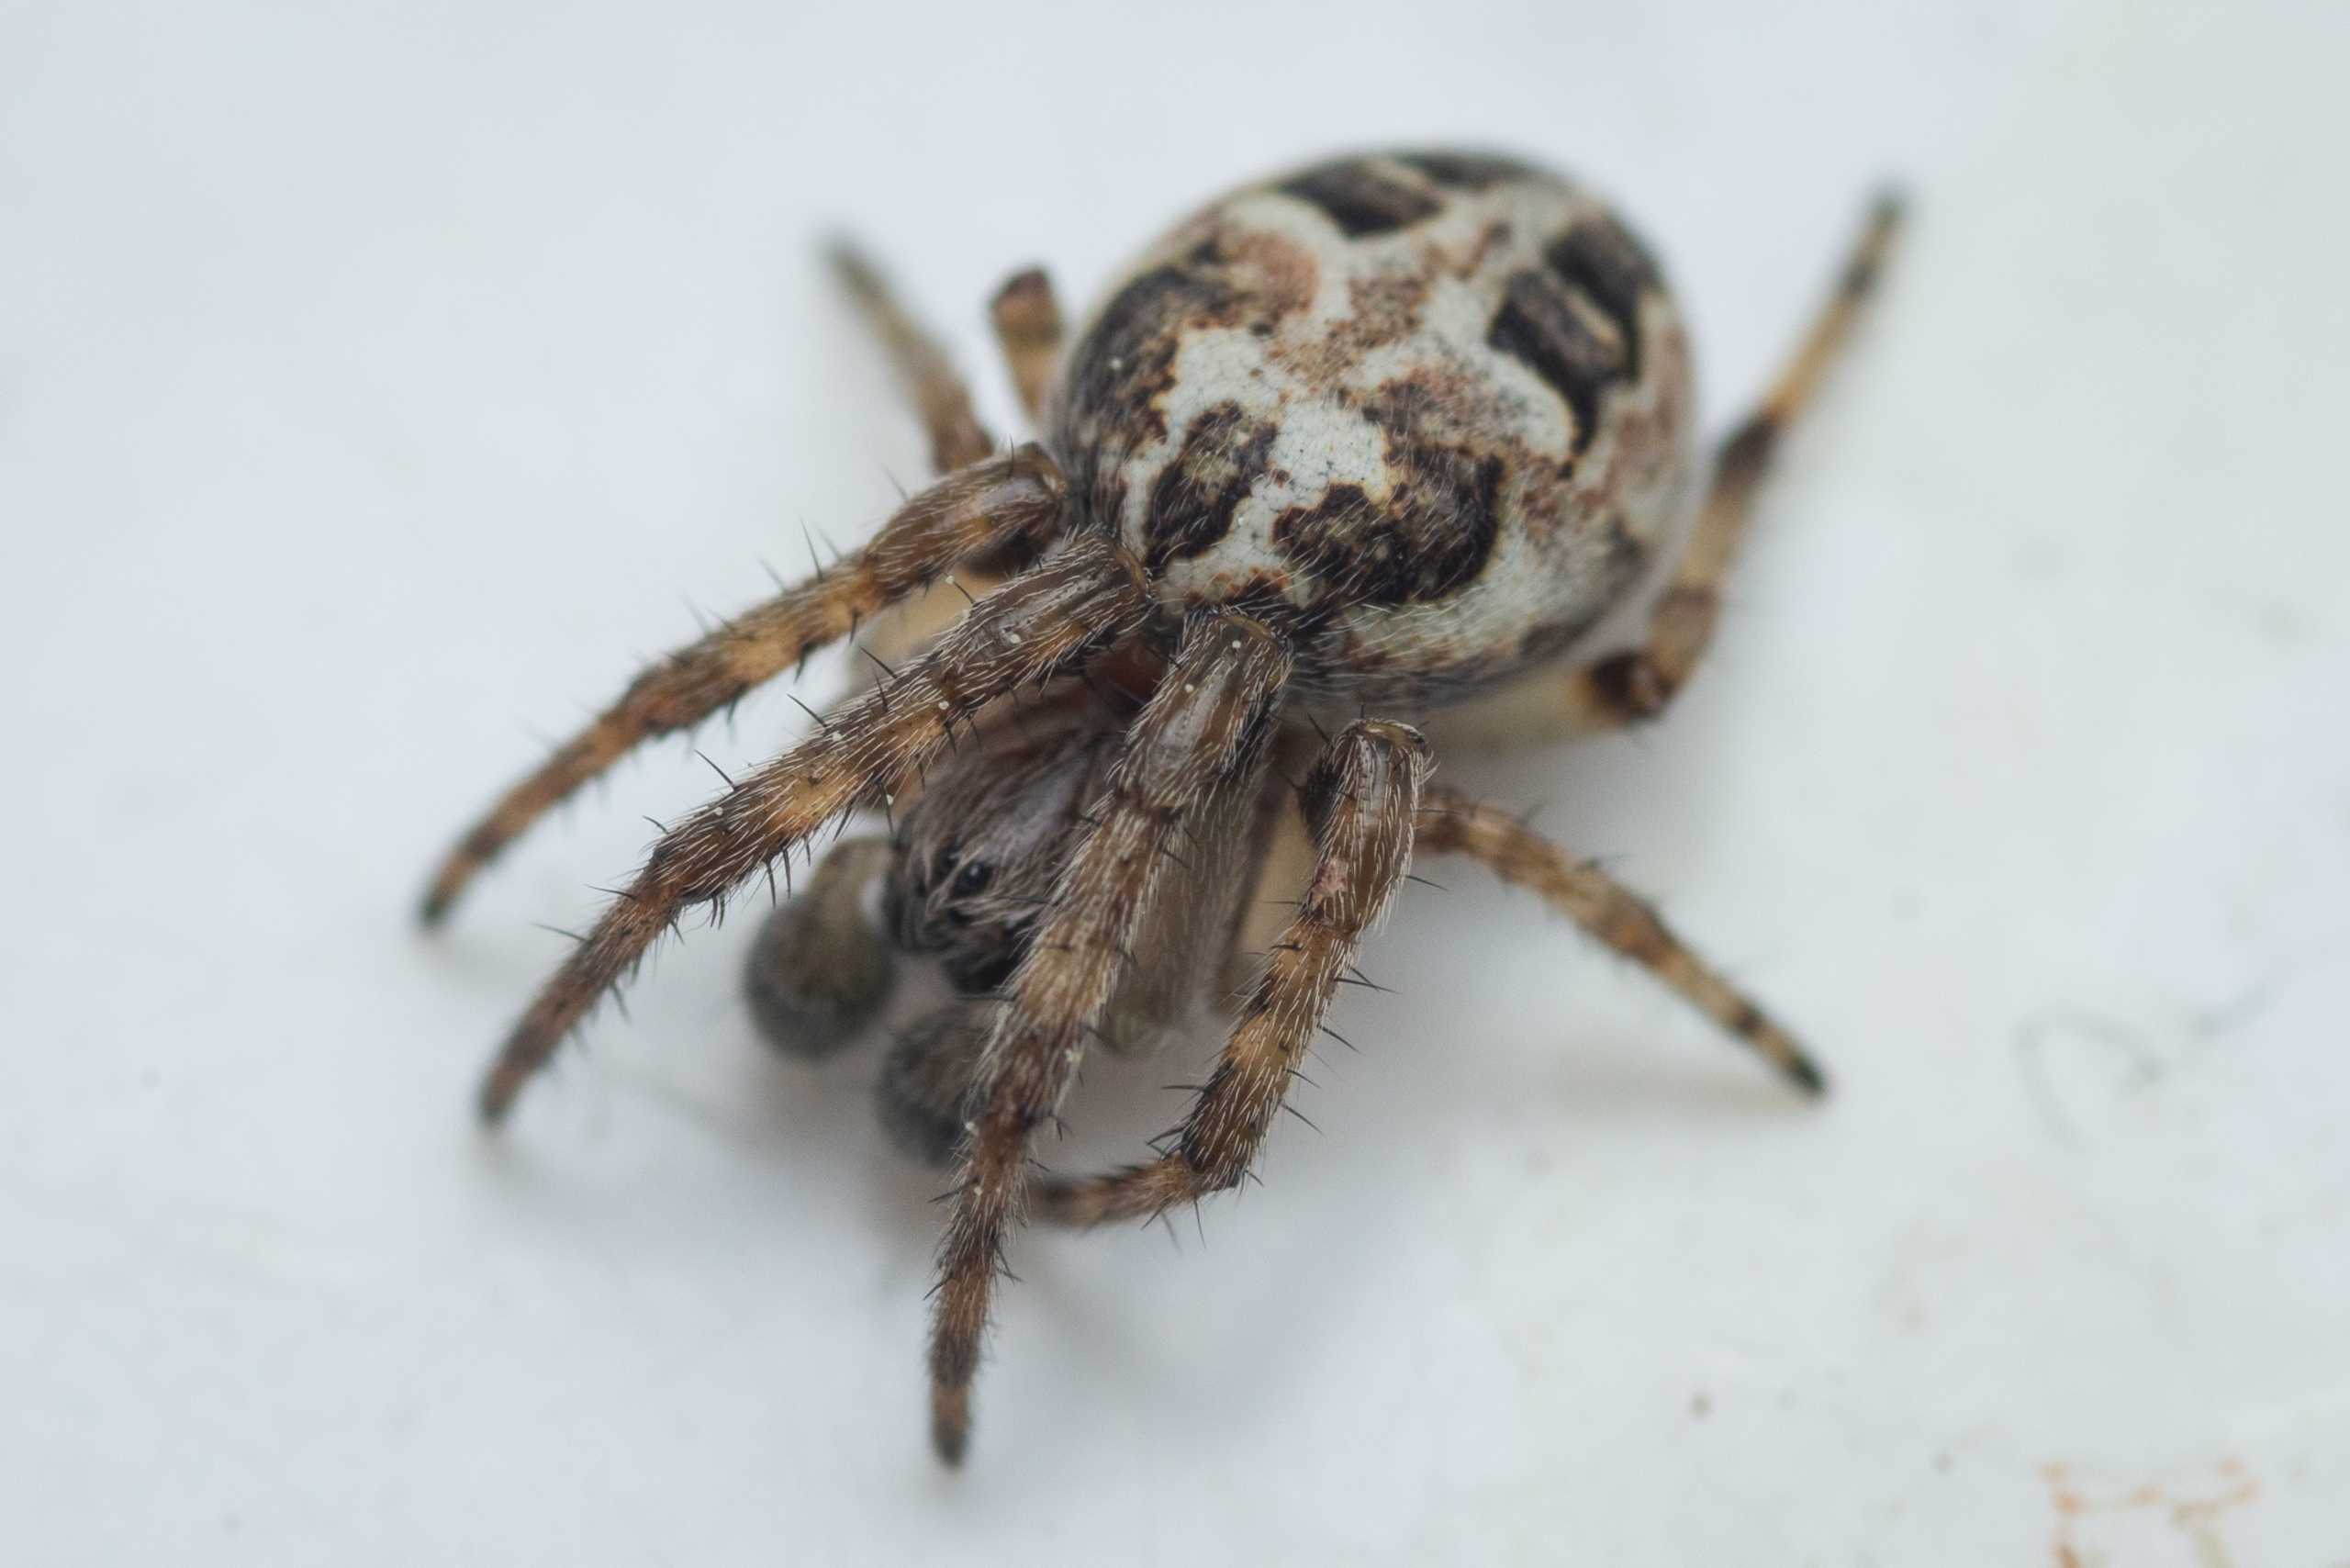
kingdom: Animalia
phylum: Arthropoda
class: Arachnida
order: Araneae
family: Araneidae
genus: Larinioides
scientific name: Larinioides cornutus
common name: Sivhjulspinder
